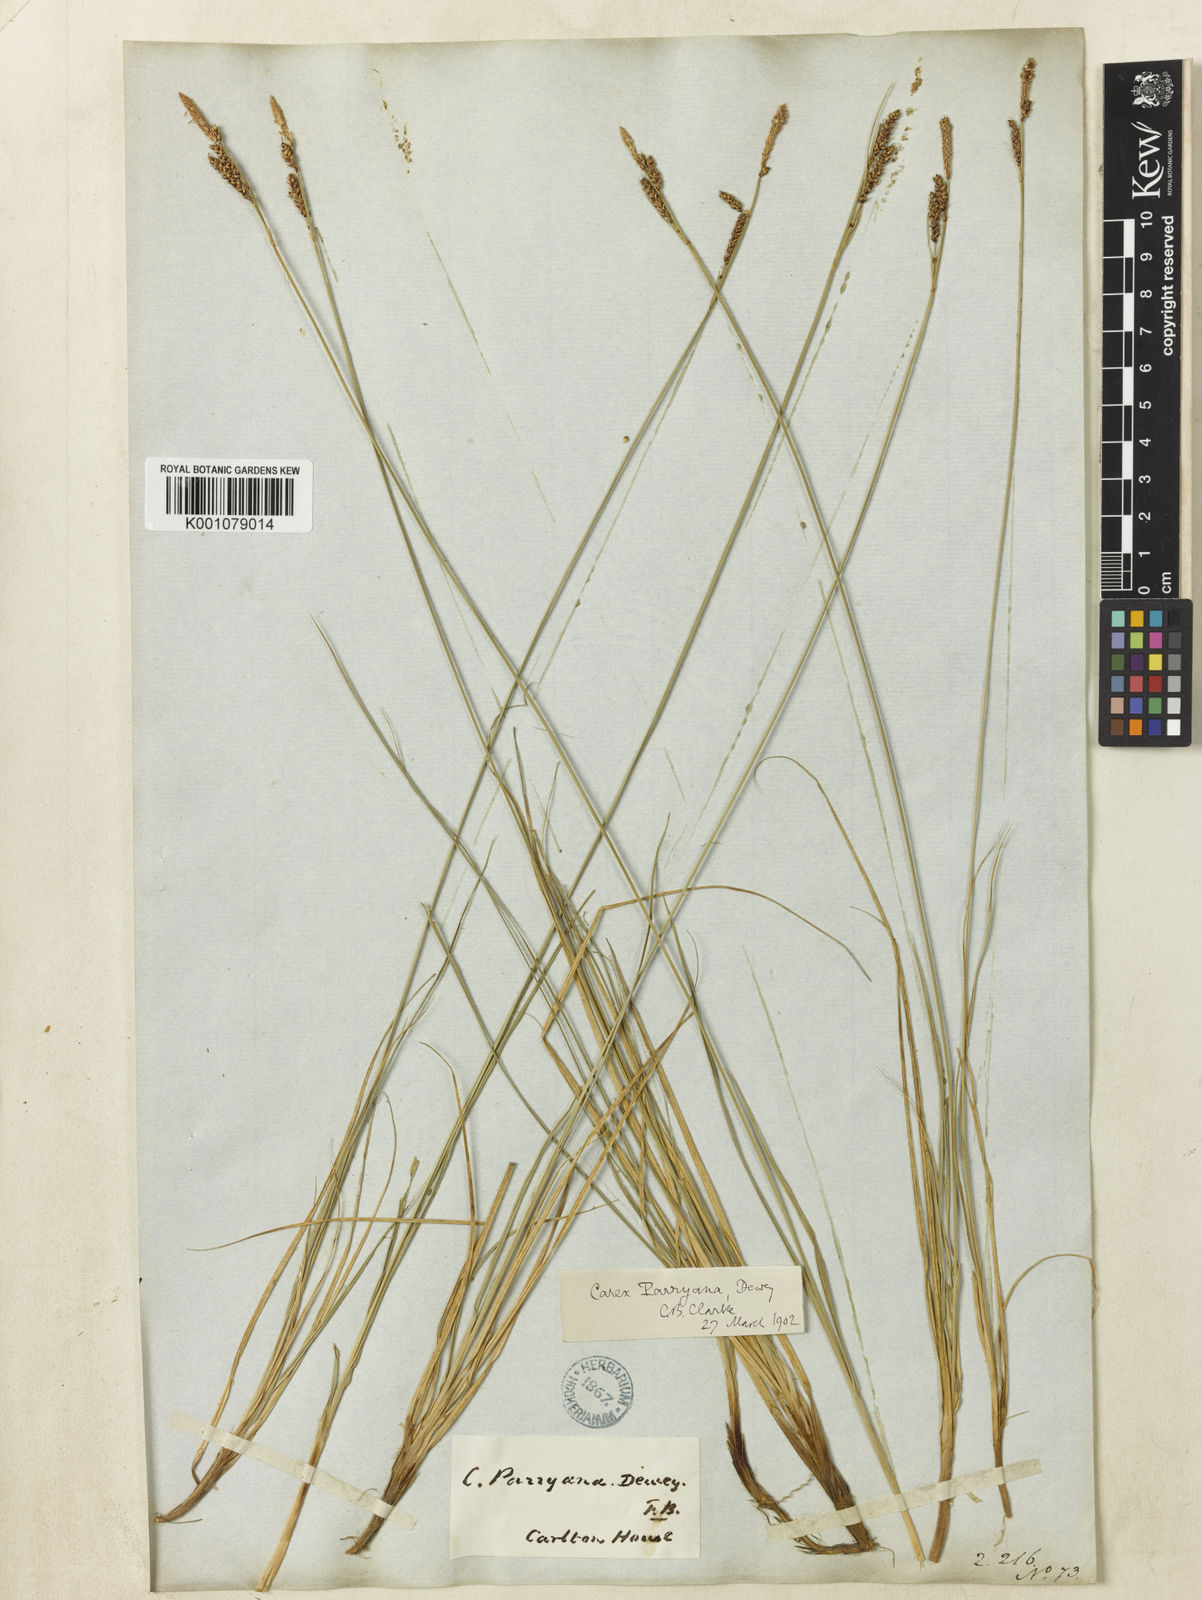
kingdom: Plantae
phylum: Tracheophyta
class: Liliopsida
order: Poales
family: Cyperaceae
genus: Carex
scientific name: Carex parryana
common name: Parry's sedge
